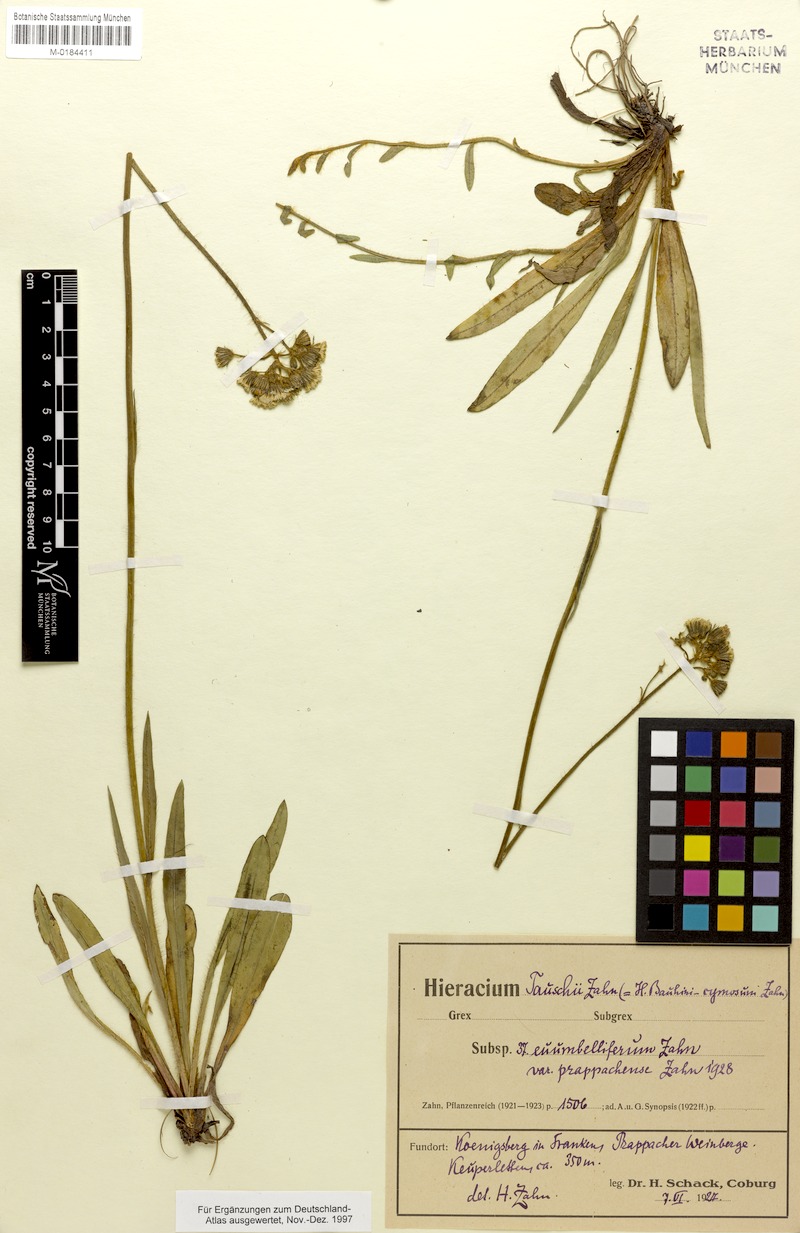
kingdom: Plantae
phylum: Tracheophyta
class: Magnoliopsida
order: Asterales
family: Asteraceae
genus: Pilosella
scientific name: Pilosella densiflora
